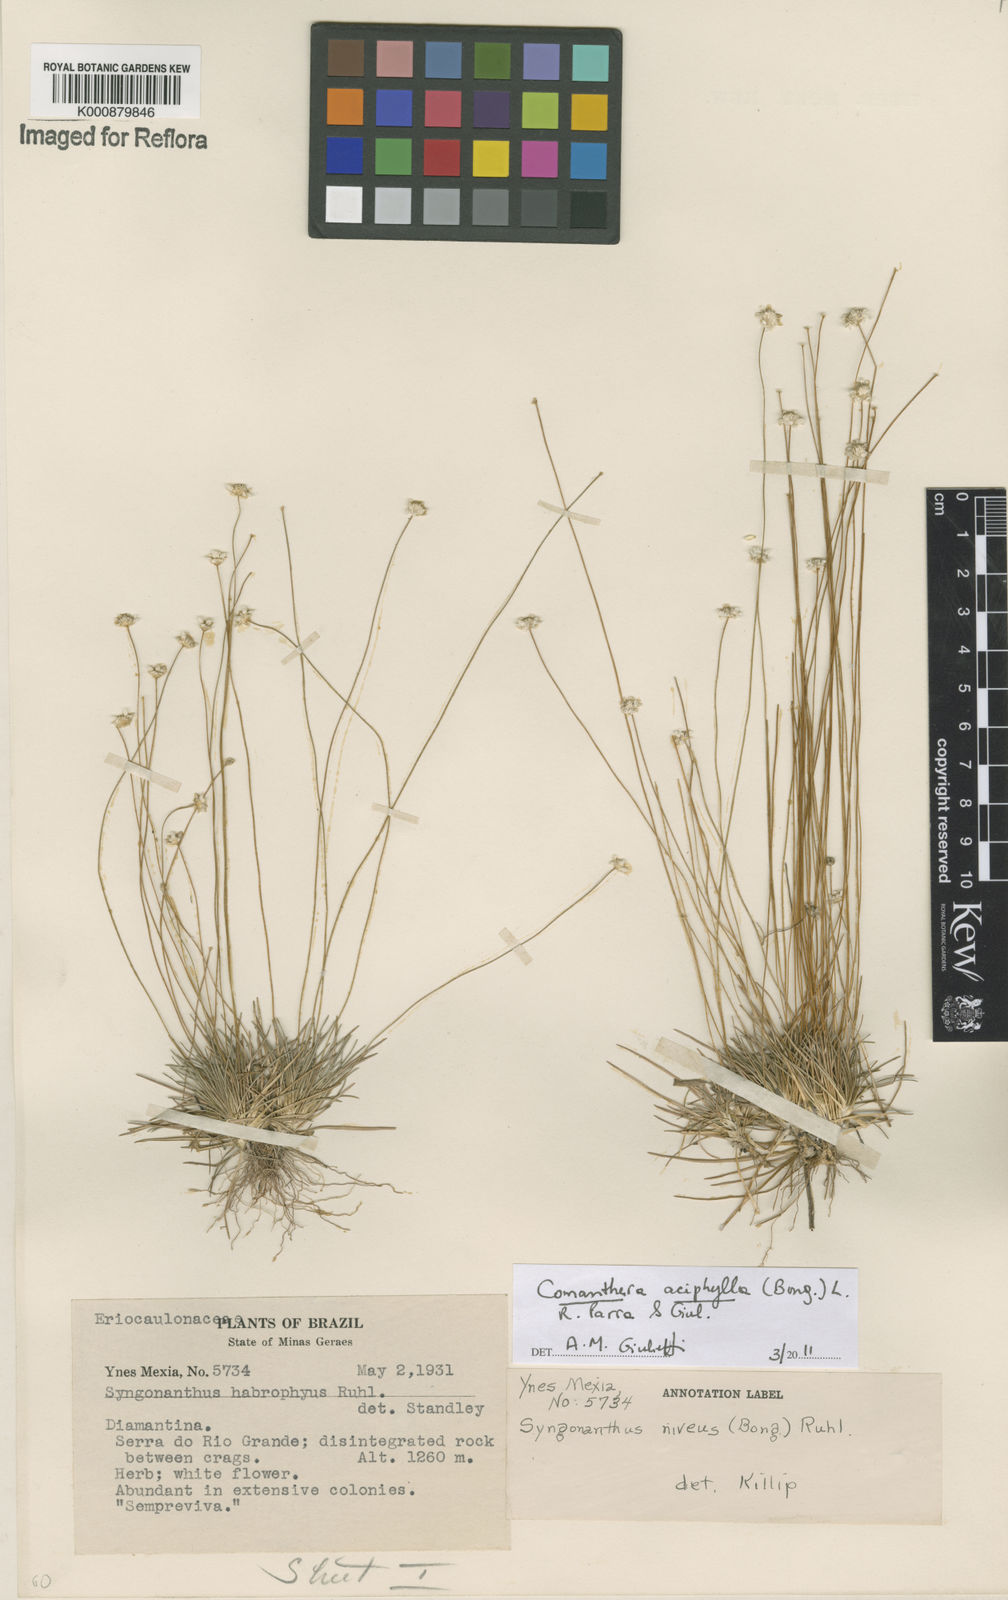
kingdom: Plantae
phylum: Tracheophyta
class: Liliopsida
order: Poales
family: Eriocaulaceae
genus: Comanthera
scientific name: Comanthera aciphylla
